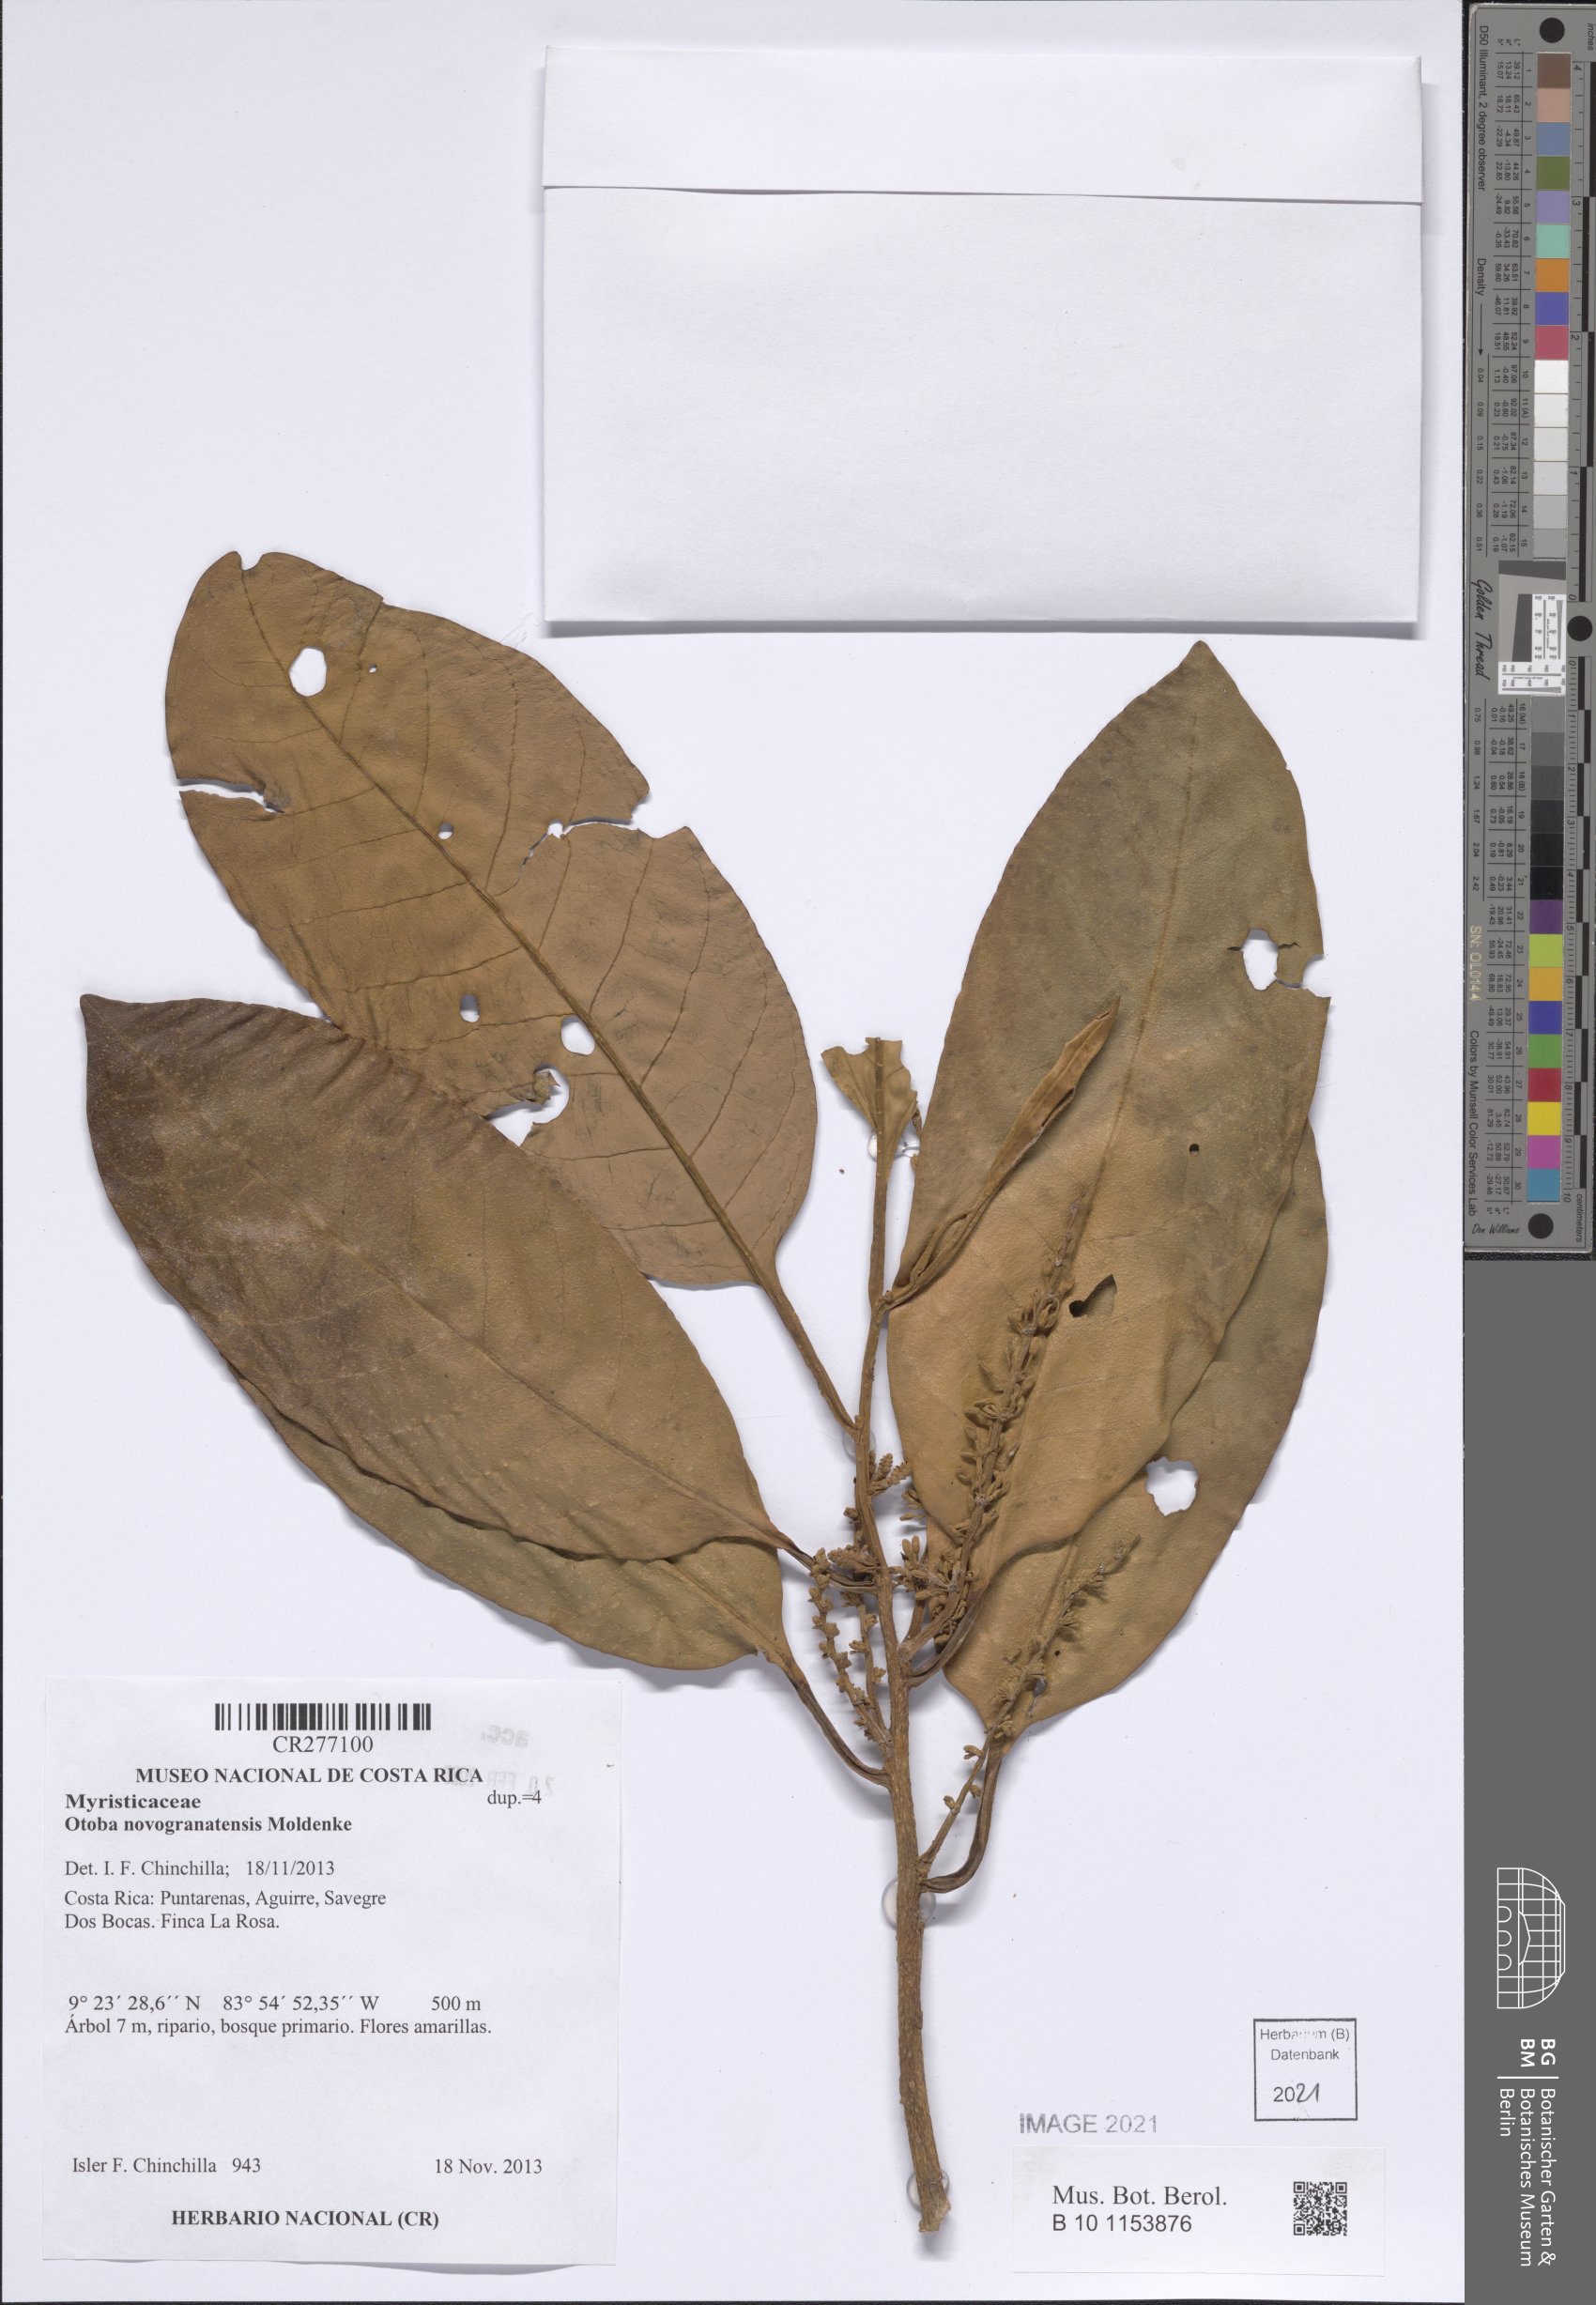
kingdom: Plantae
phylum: Tracheophyta
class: Magnoliopsida
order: Magnoliales
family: Myristicaceae
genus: Otoba
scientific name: Otoba novogranatensis
